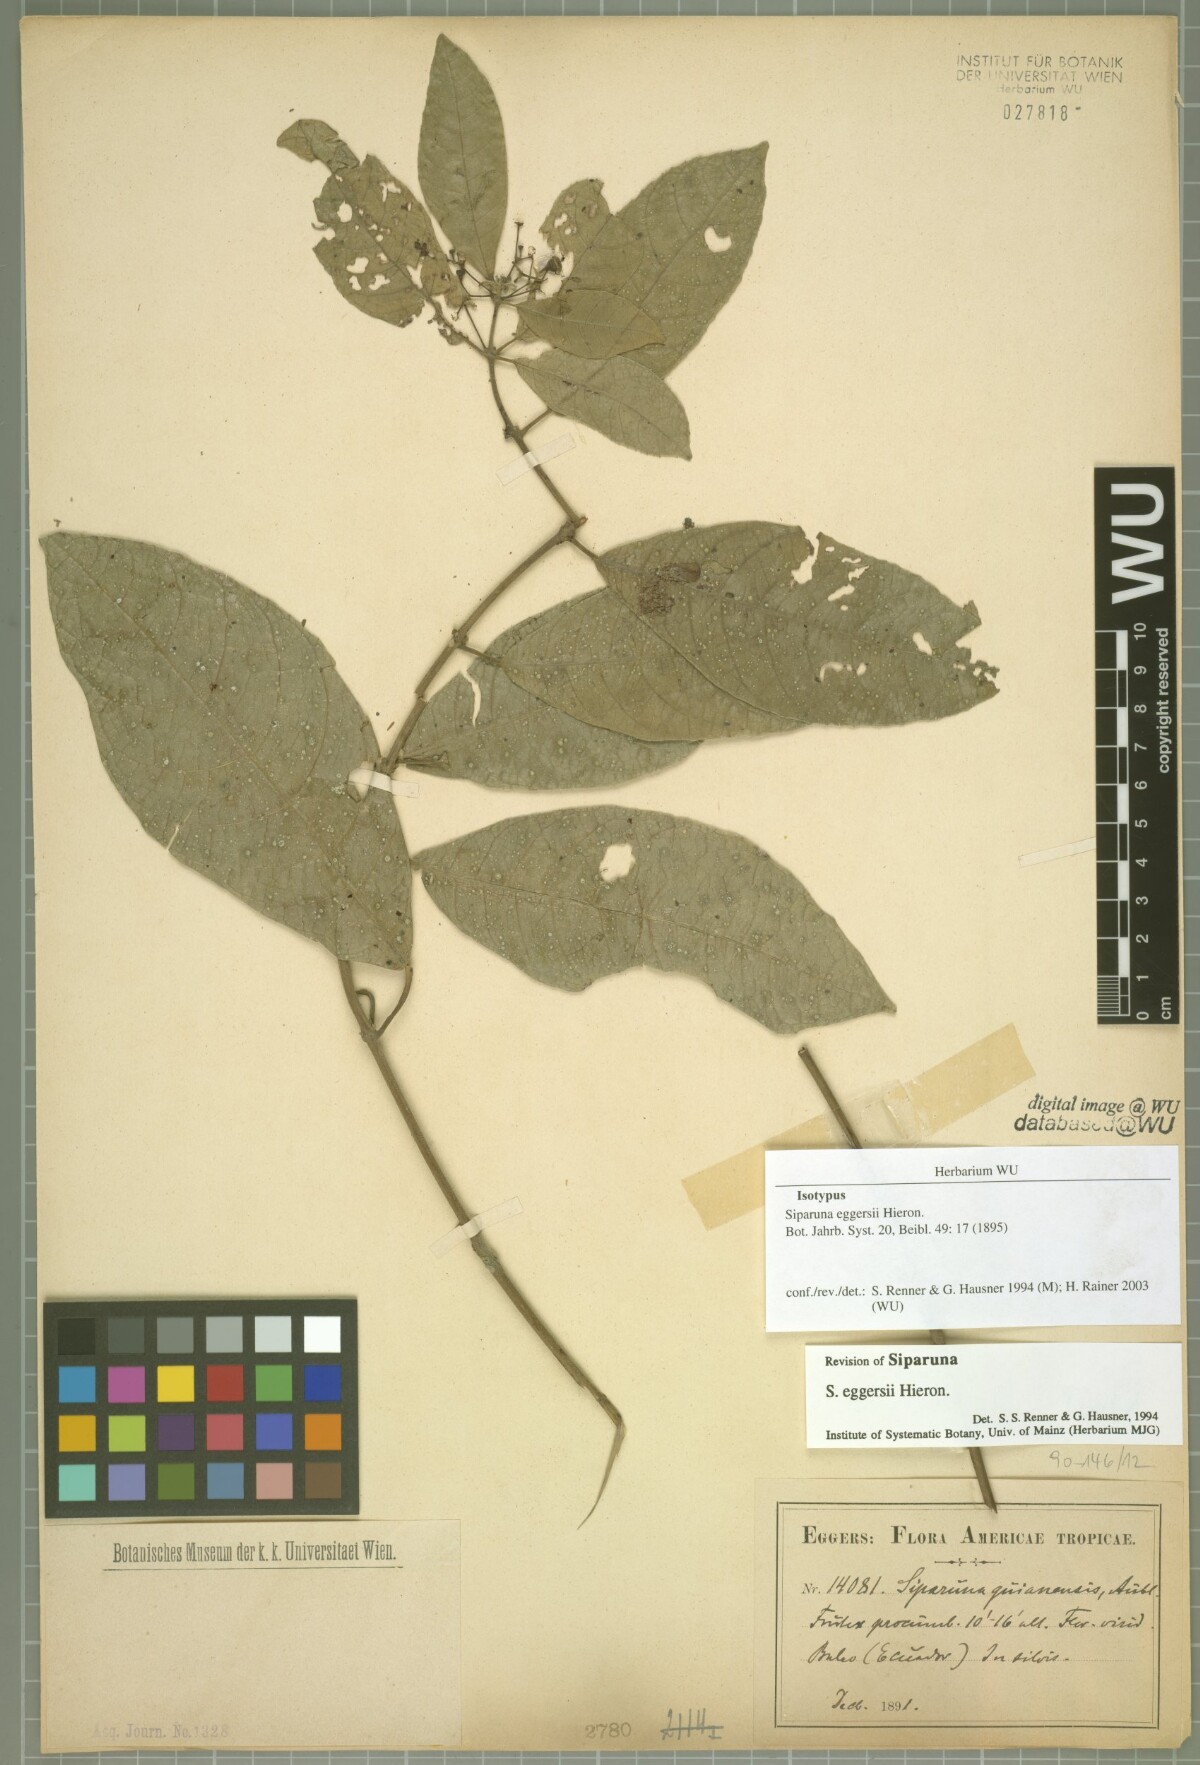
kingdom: Plantae
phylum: Tracheophyta
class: Magnoliopsida
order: Laurales
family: Siparunaceae
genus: Siparuna
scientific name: Siparuna eggersii
